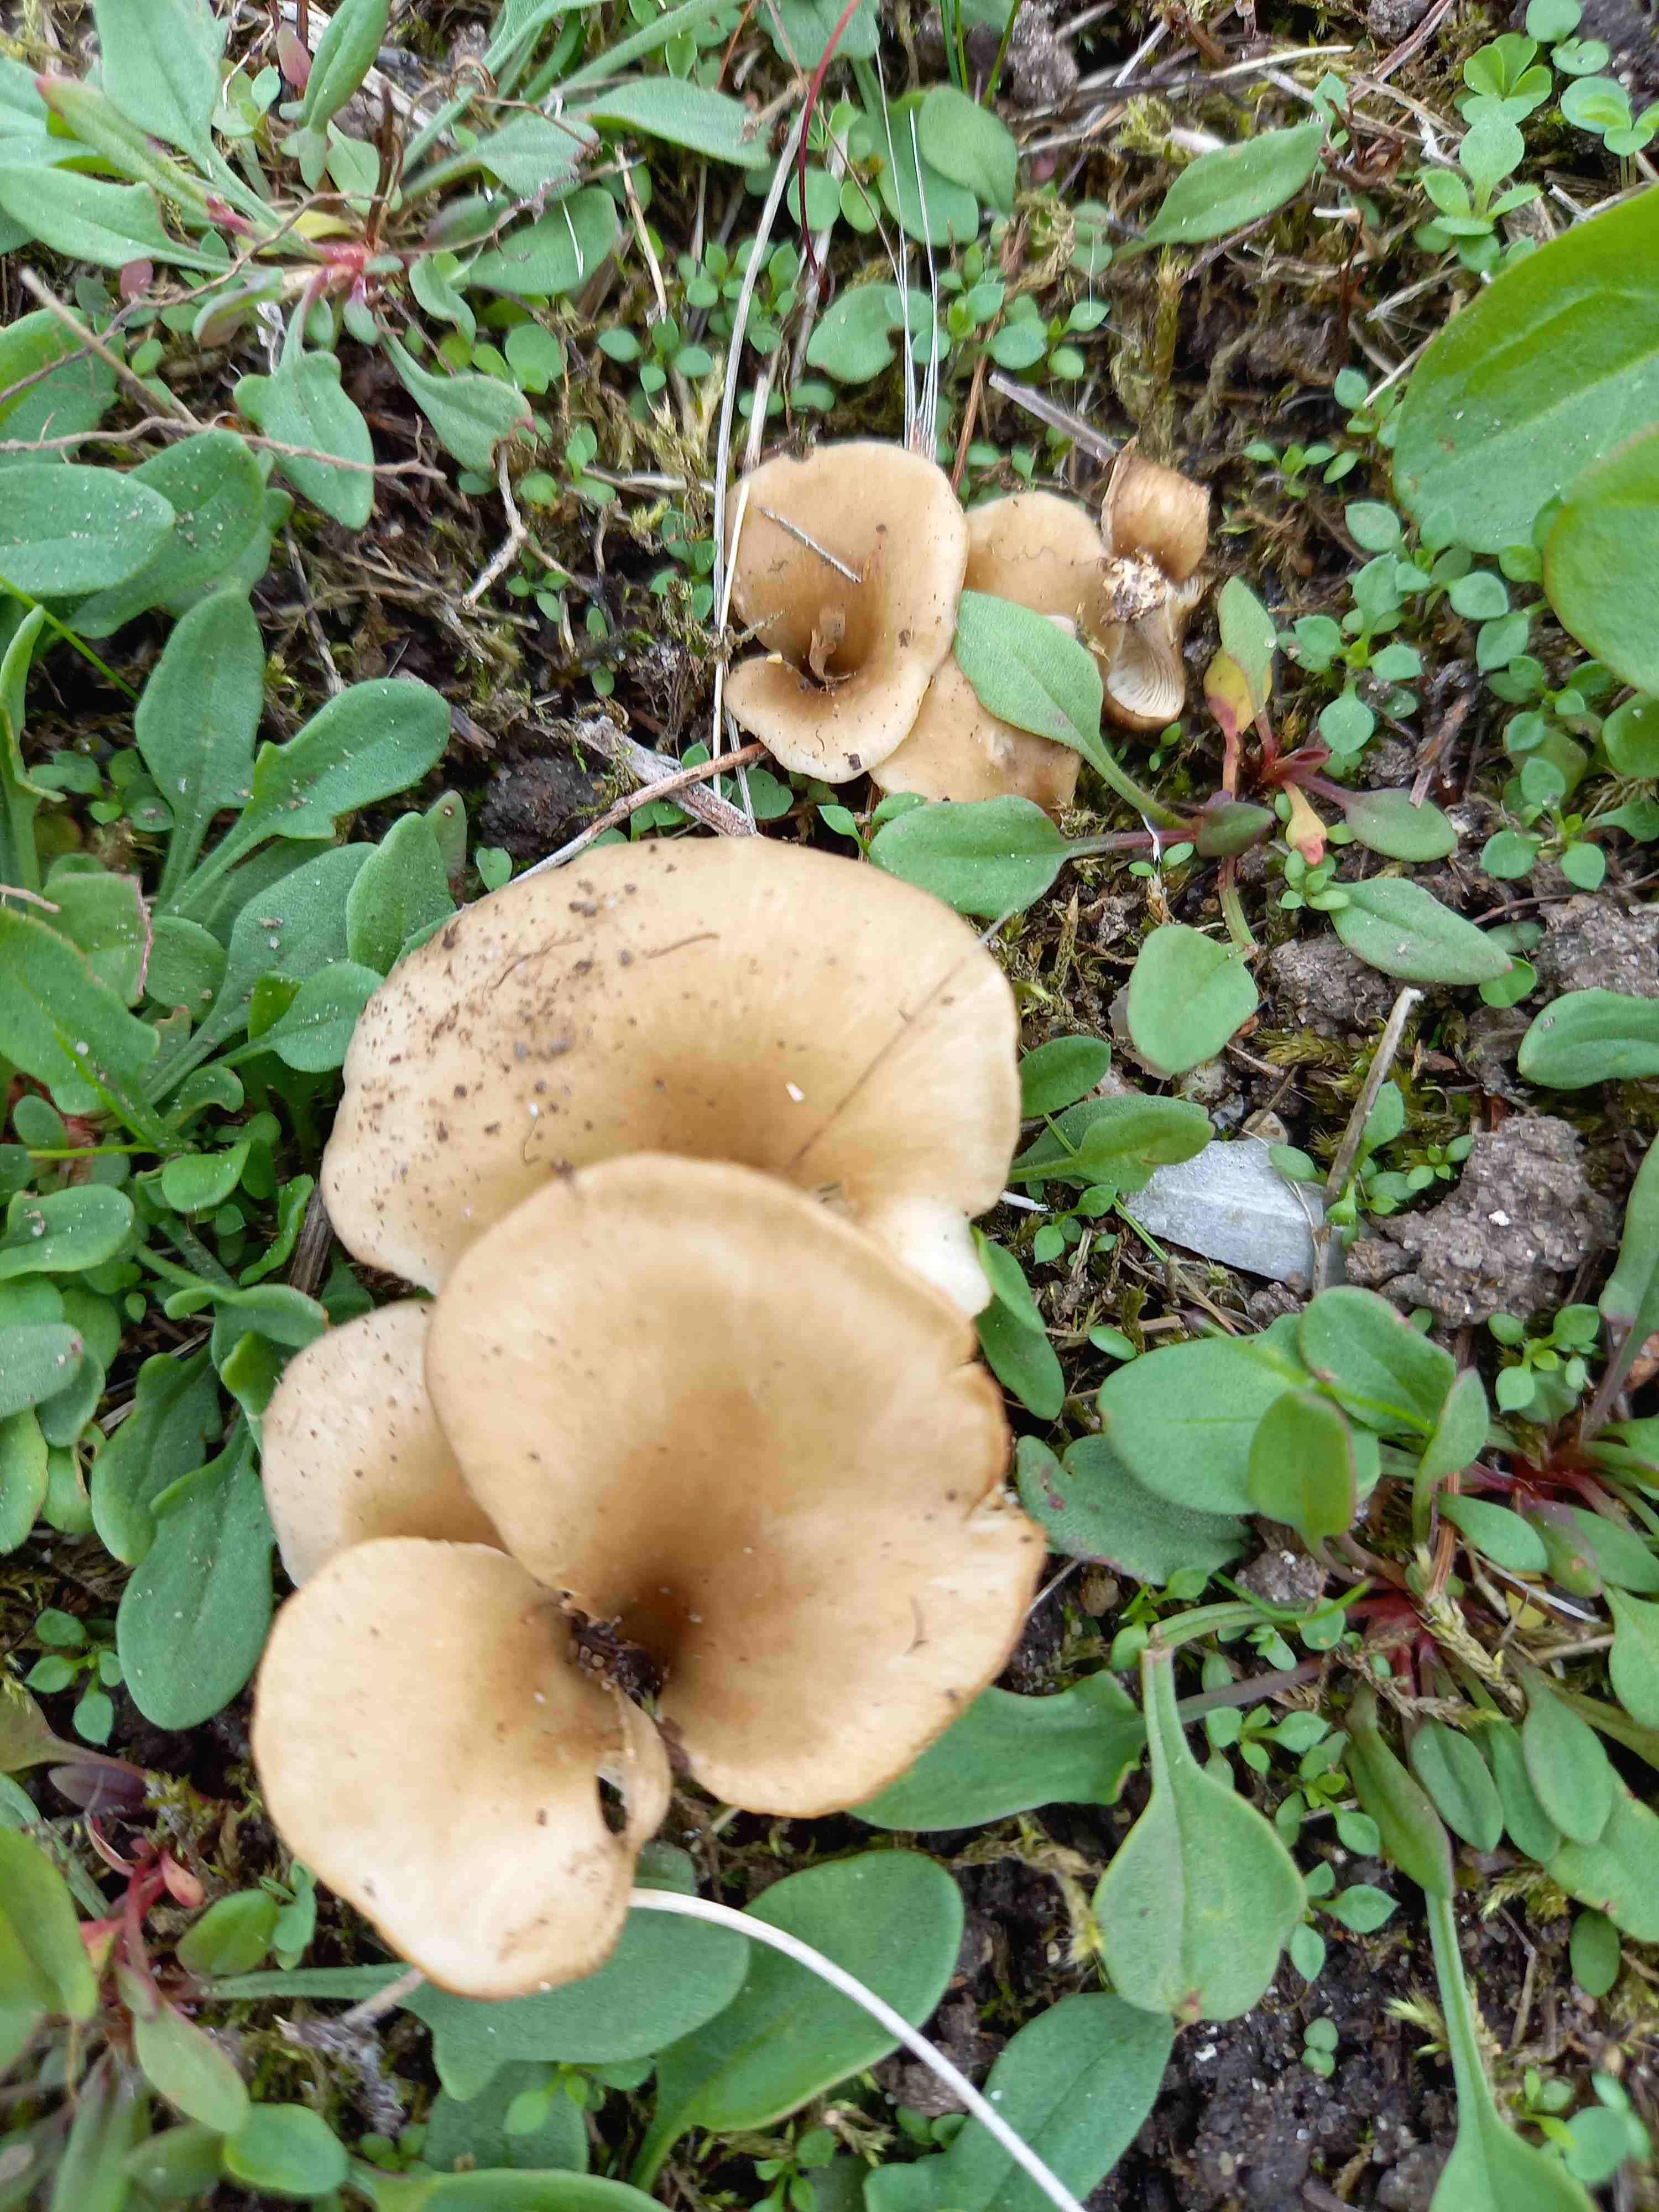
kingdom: Fungi
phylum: Basidiomycota
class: Agaricomycetes
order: Agaricales
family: Pleurotaceae
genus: Hohenbuehelia
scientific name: Hohenbuehelia bonii
